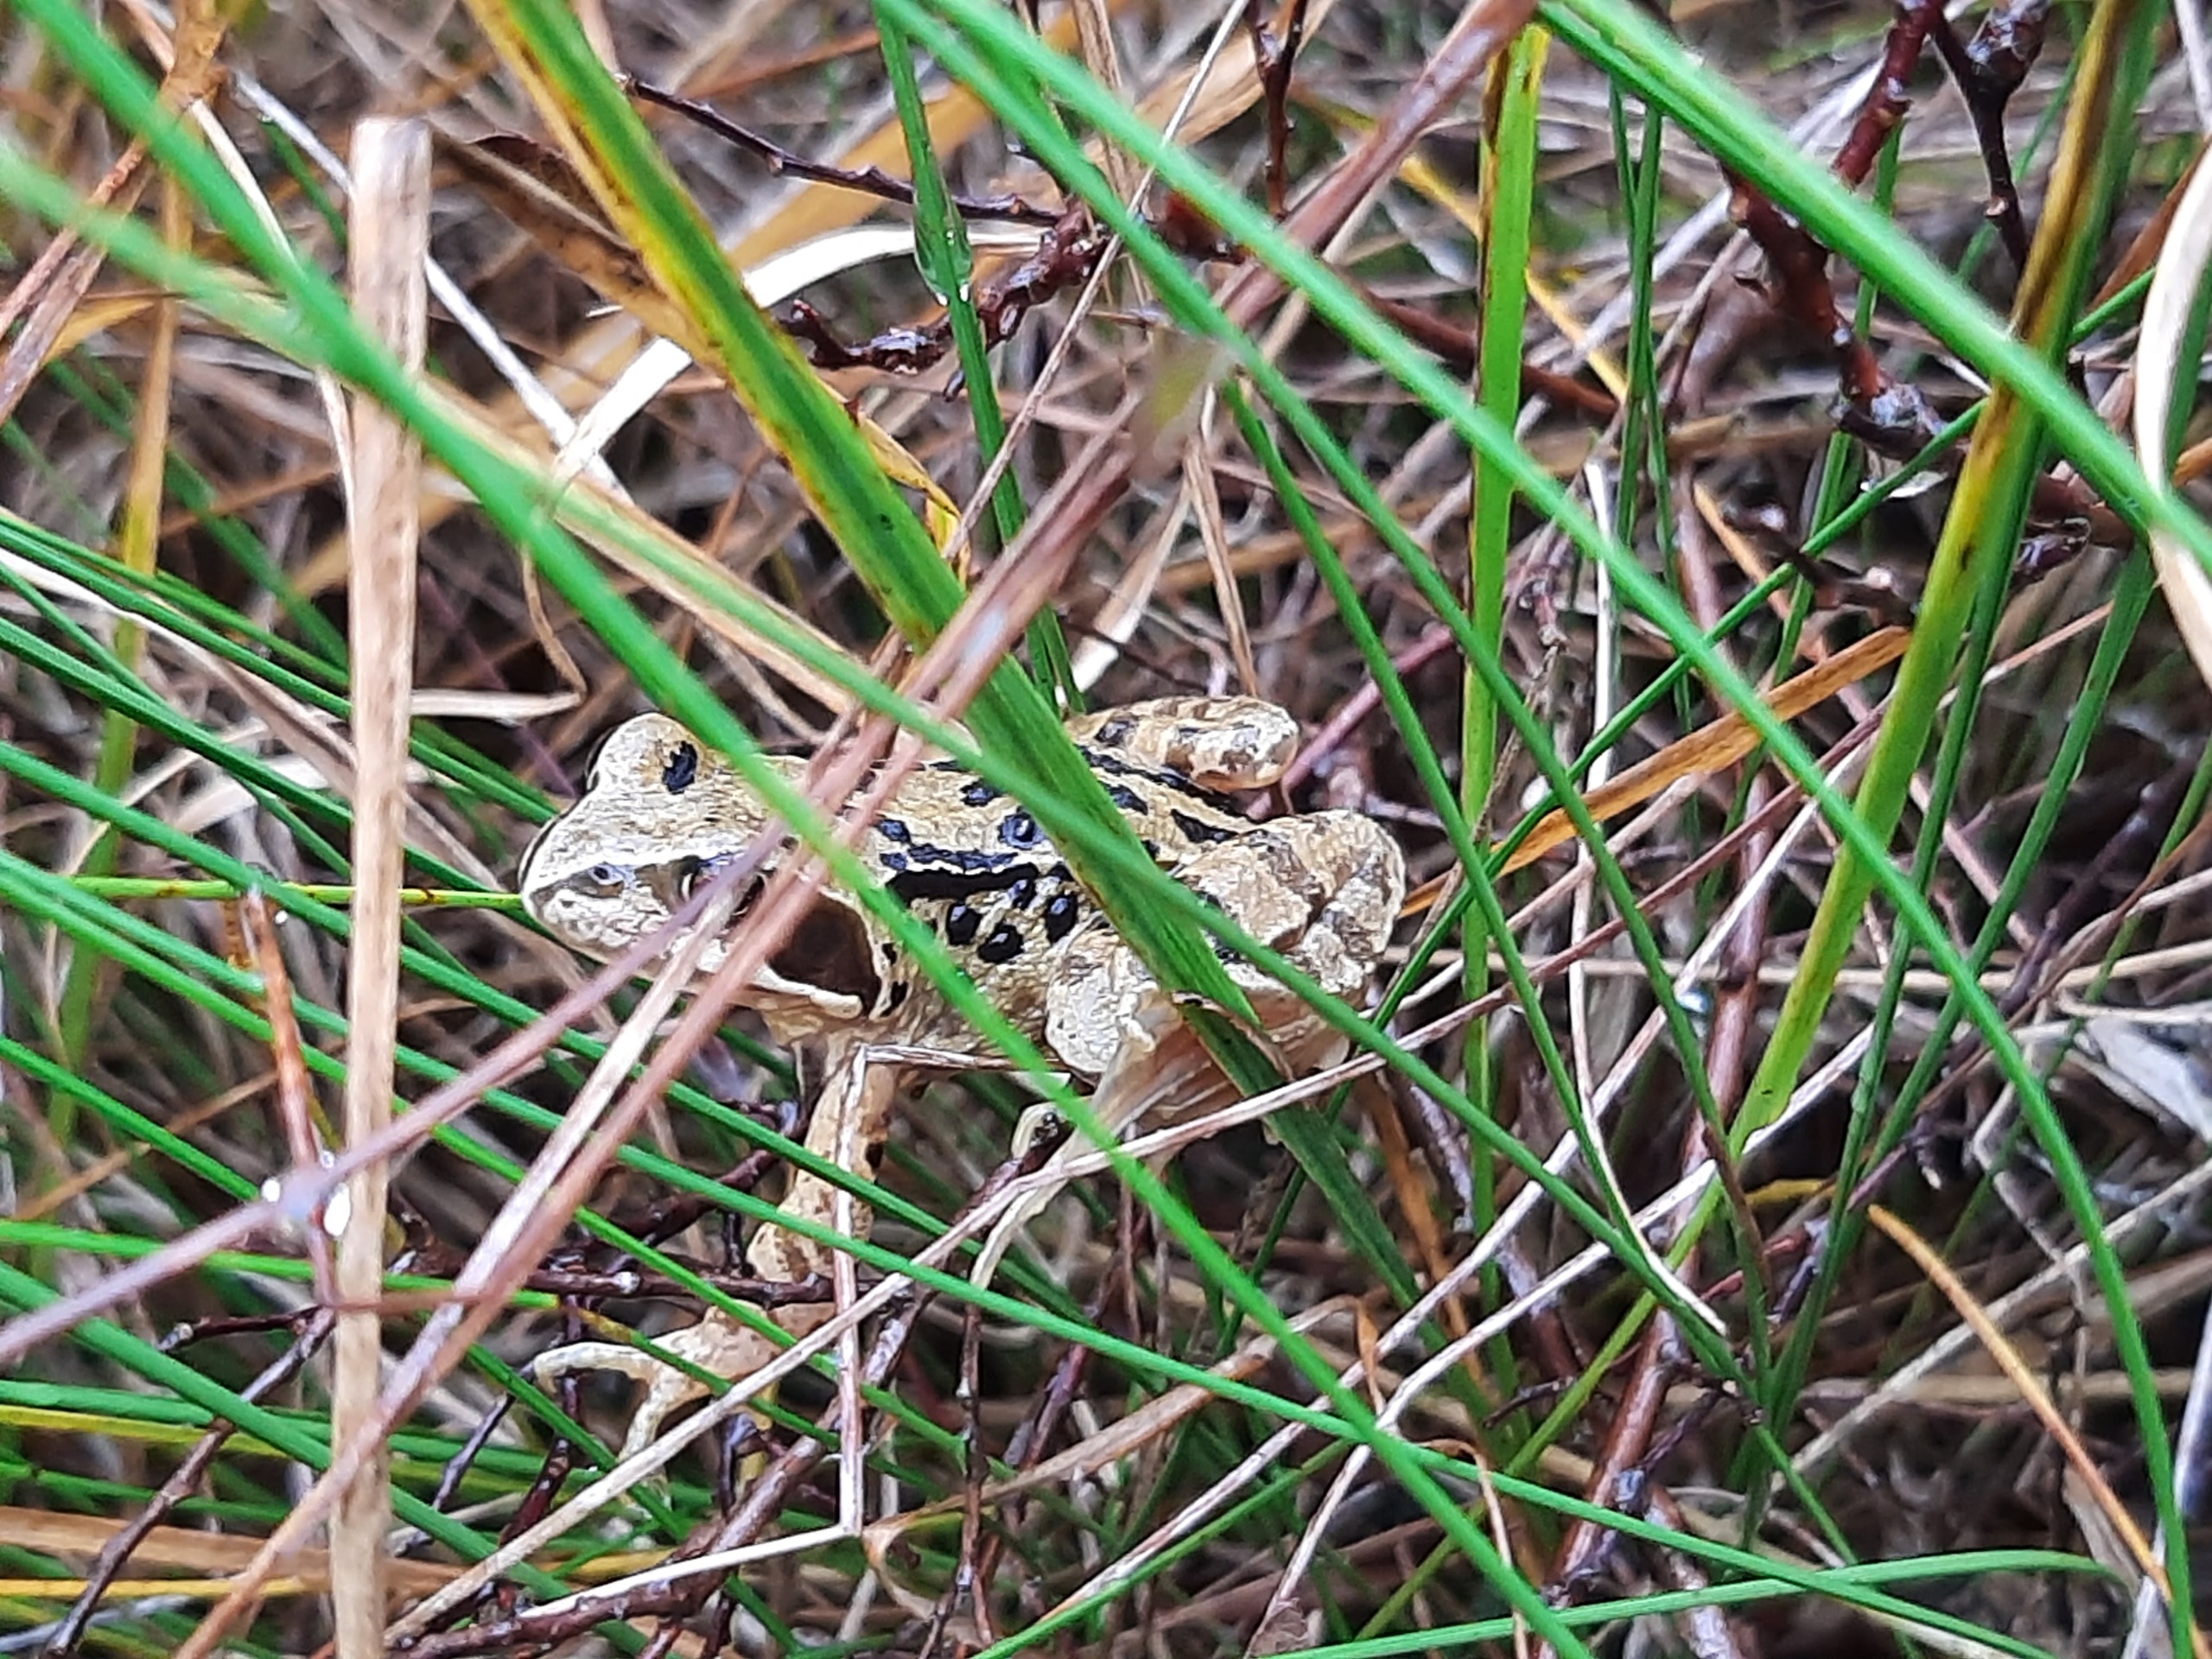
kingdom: Animalia
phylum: Chordata
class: Amphibia
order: Anura
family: Ranidae
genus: Rana
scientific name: Rana temporaria
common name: Butsnudet frø
